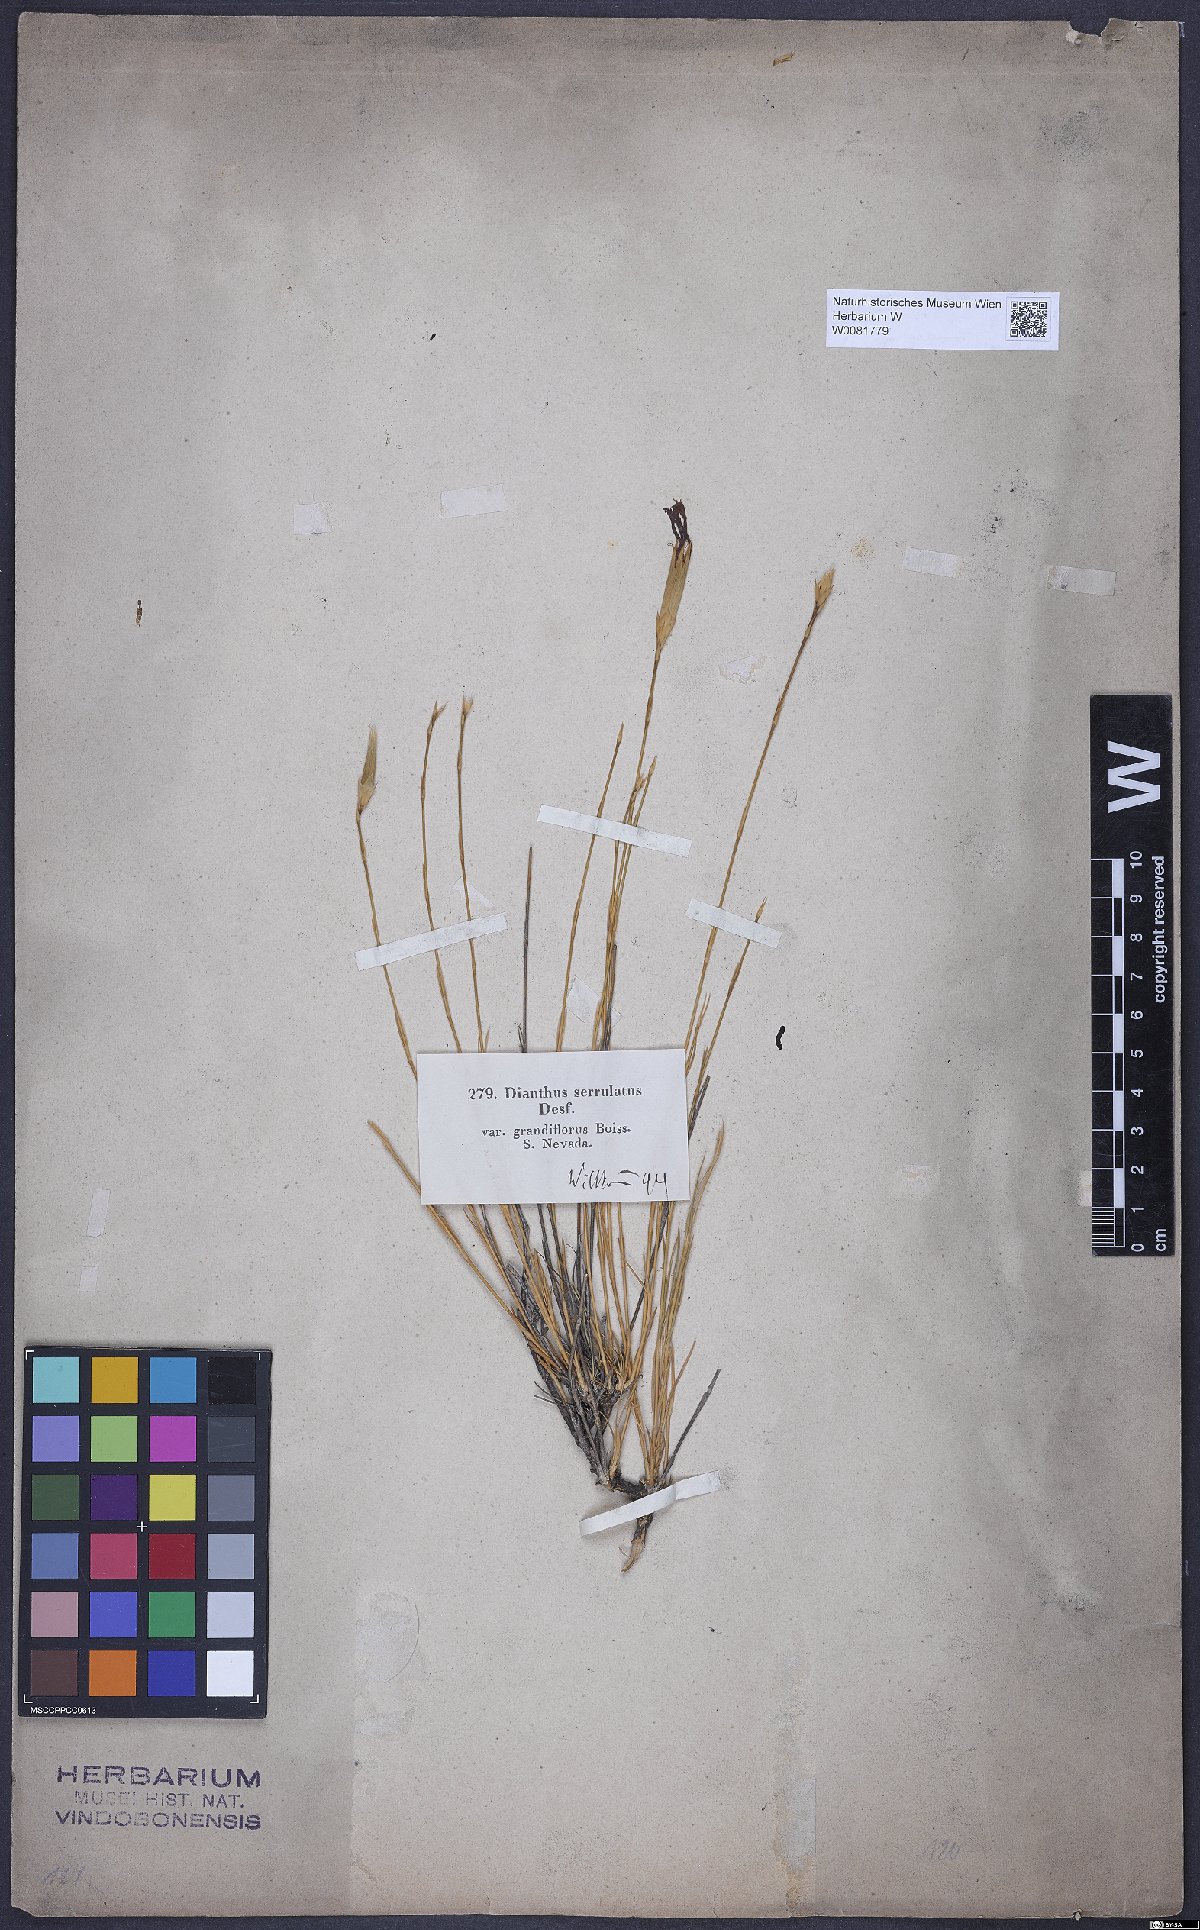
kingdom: Plantae
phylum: Tracheophyta
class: Magnoliopsida
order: Caryophyllales
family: Caryophyllaceae
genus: Dianthus
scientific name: Dianthus broteri
